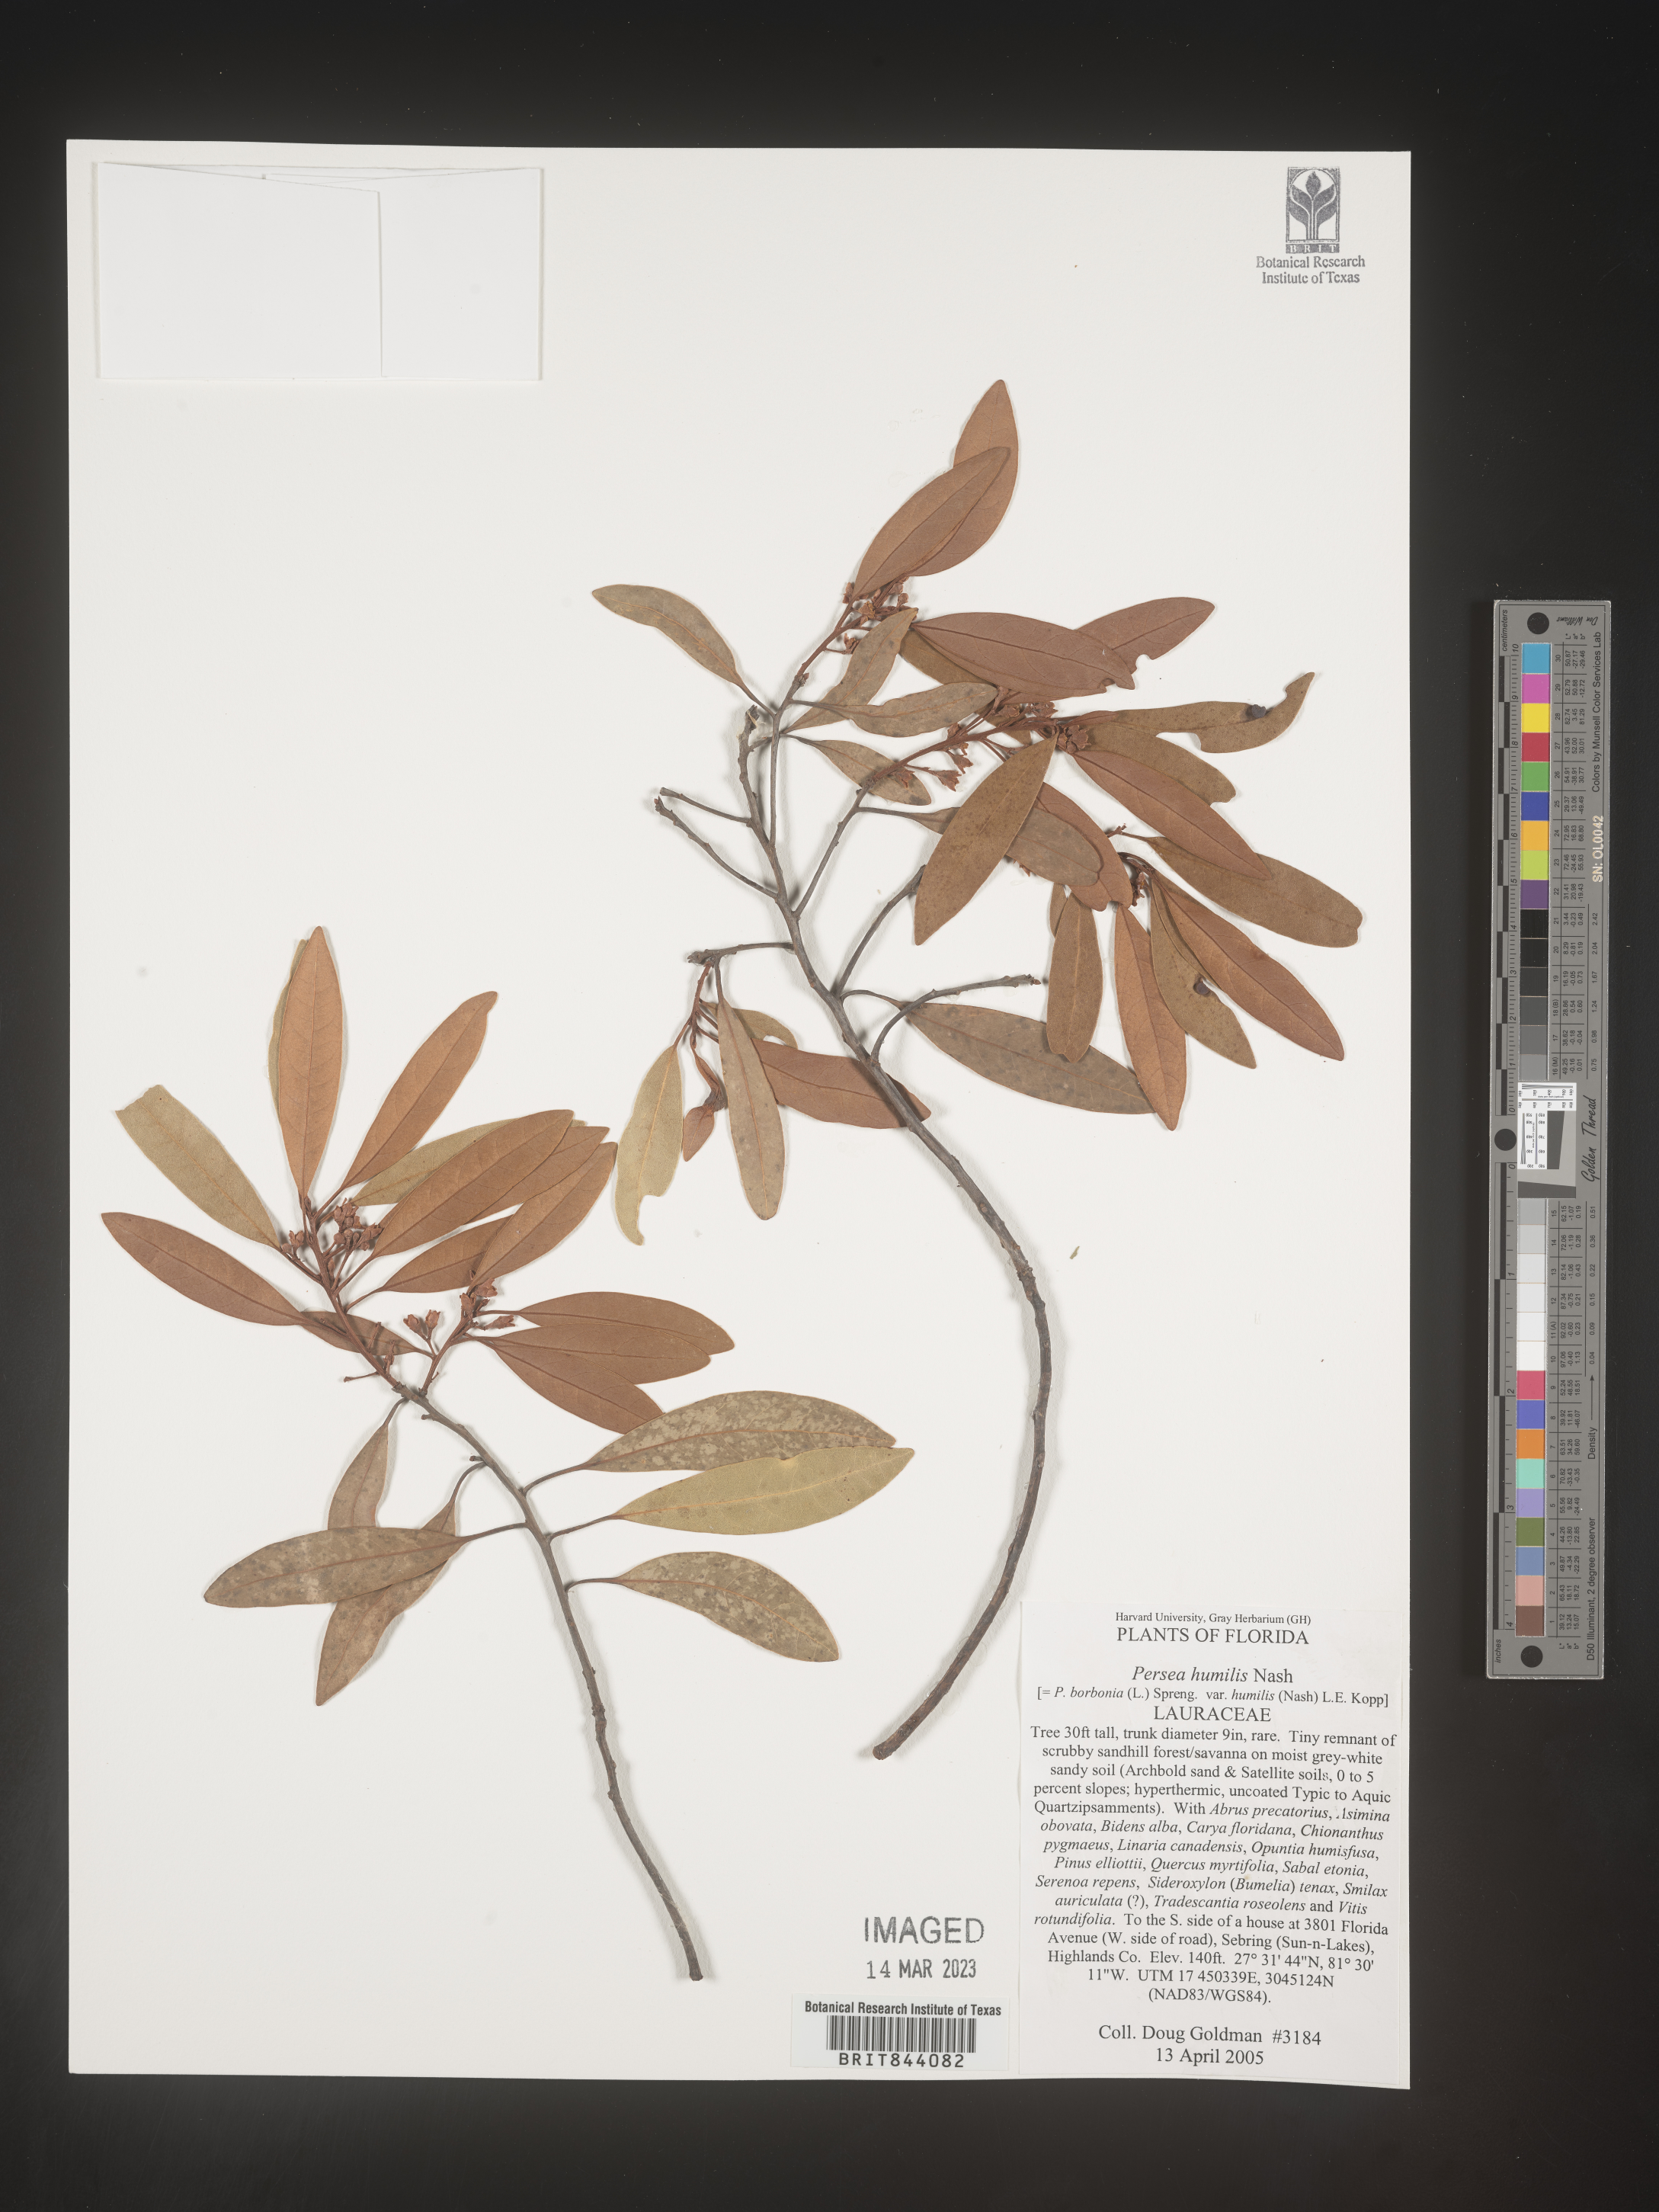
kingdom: Plantae
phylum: Tracheophyta
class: Magnoliopsida
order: Laurales
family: Lauraceae
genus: Persea
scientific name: Persea
